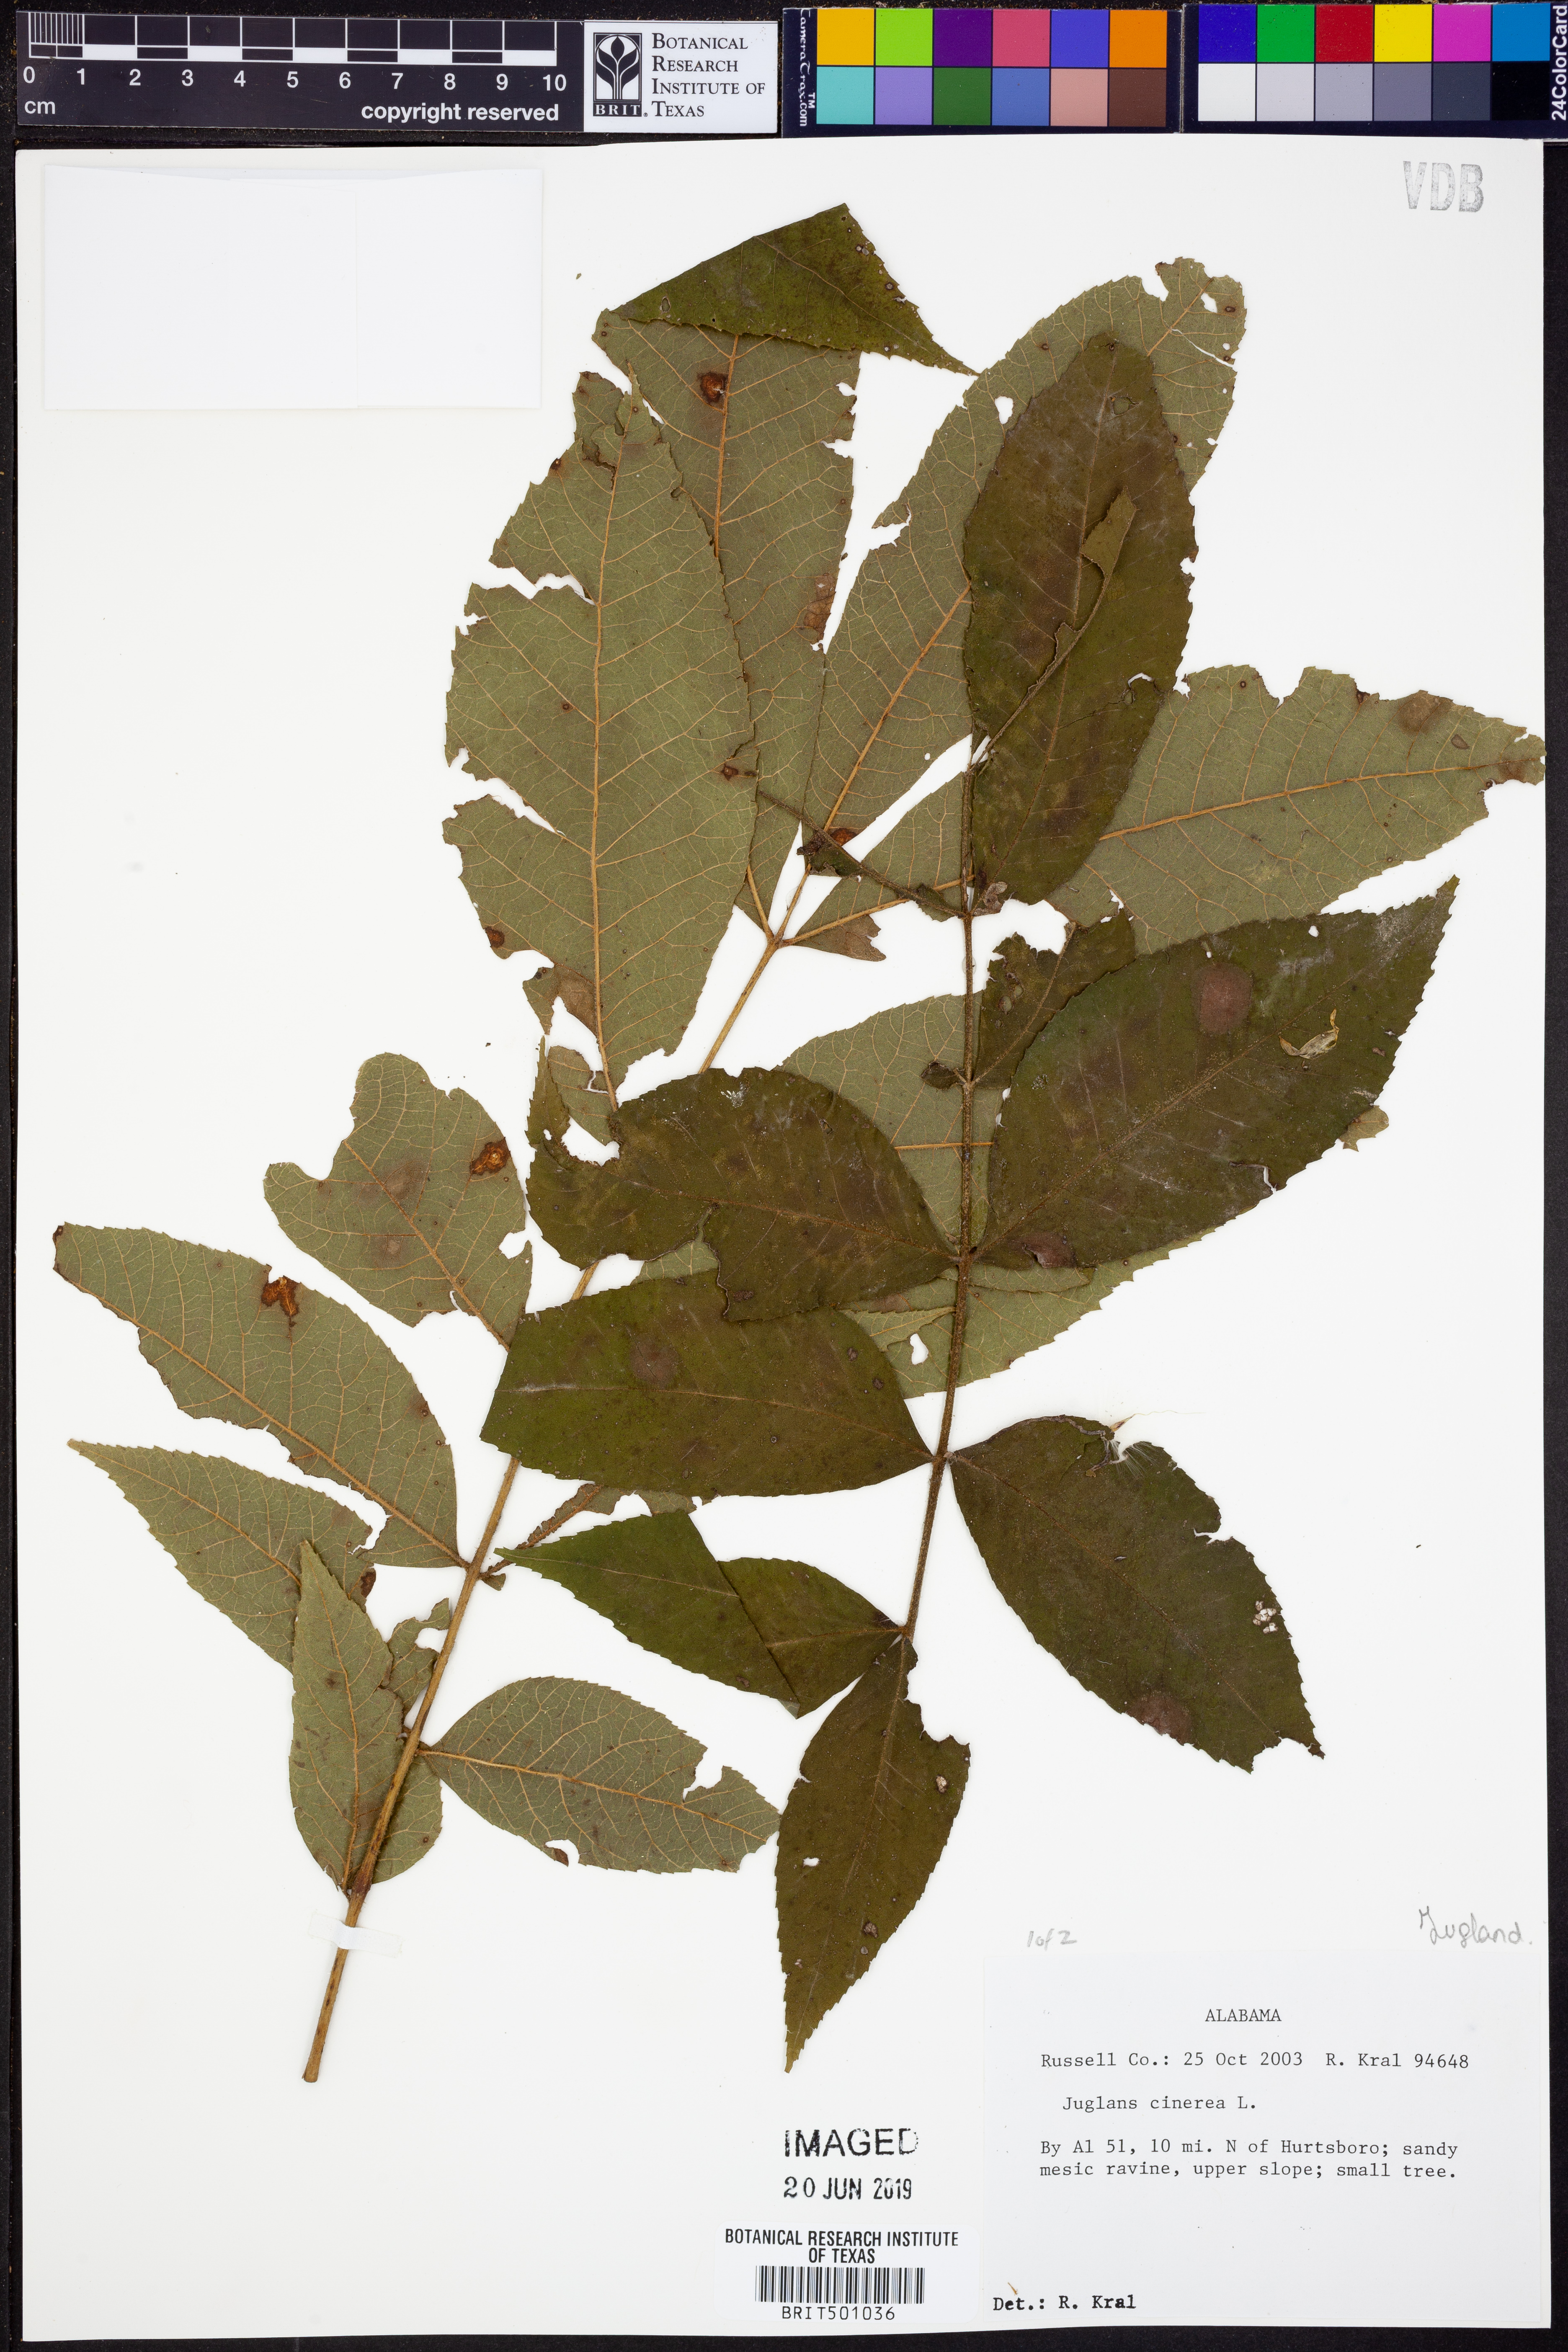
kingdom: Plantae
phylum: Tracheophyta
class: Magnoliopsida
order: Fagales
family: Juglandaceae
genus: Juglans
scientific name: Juglans cinerea
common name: Butternut
